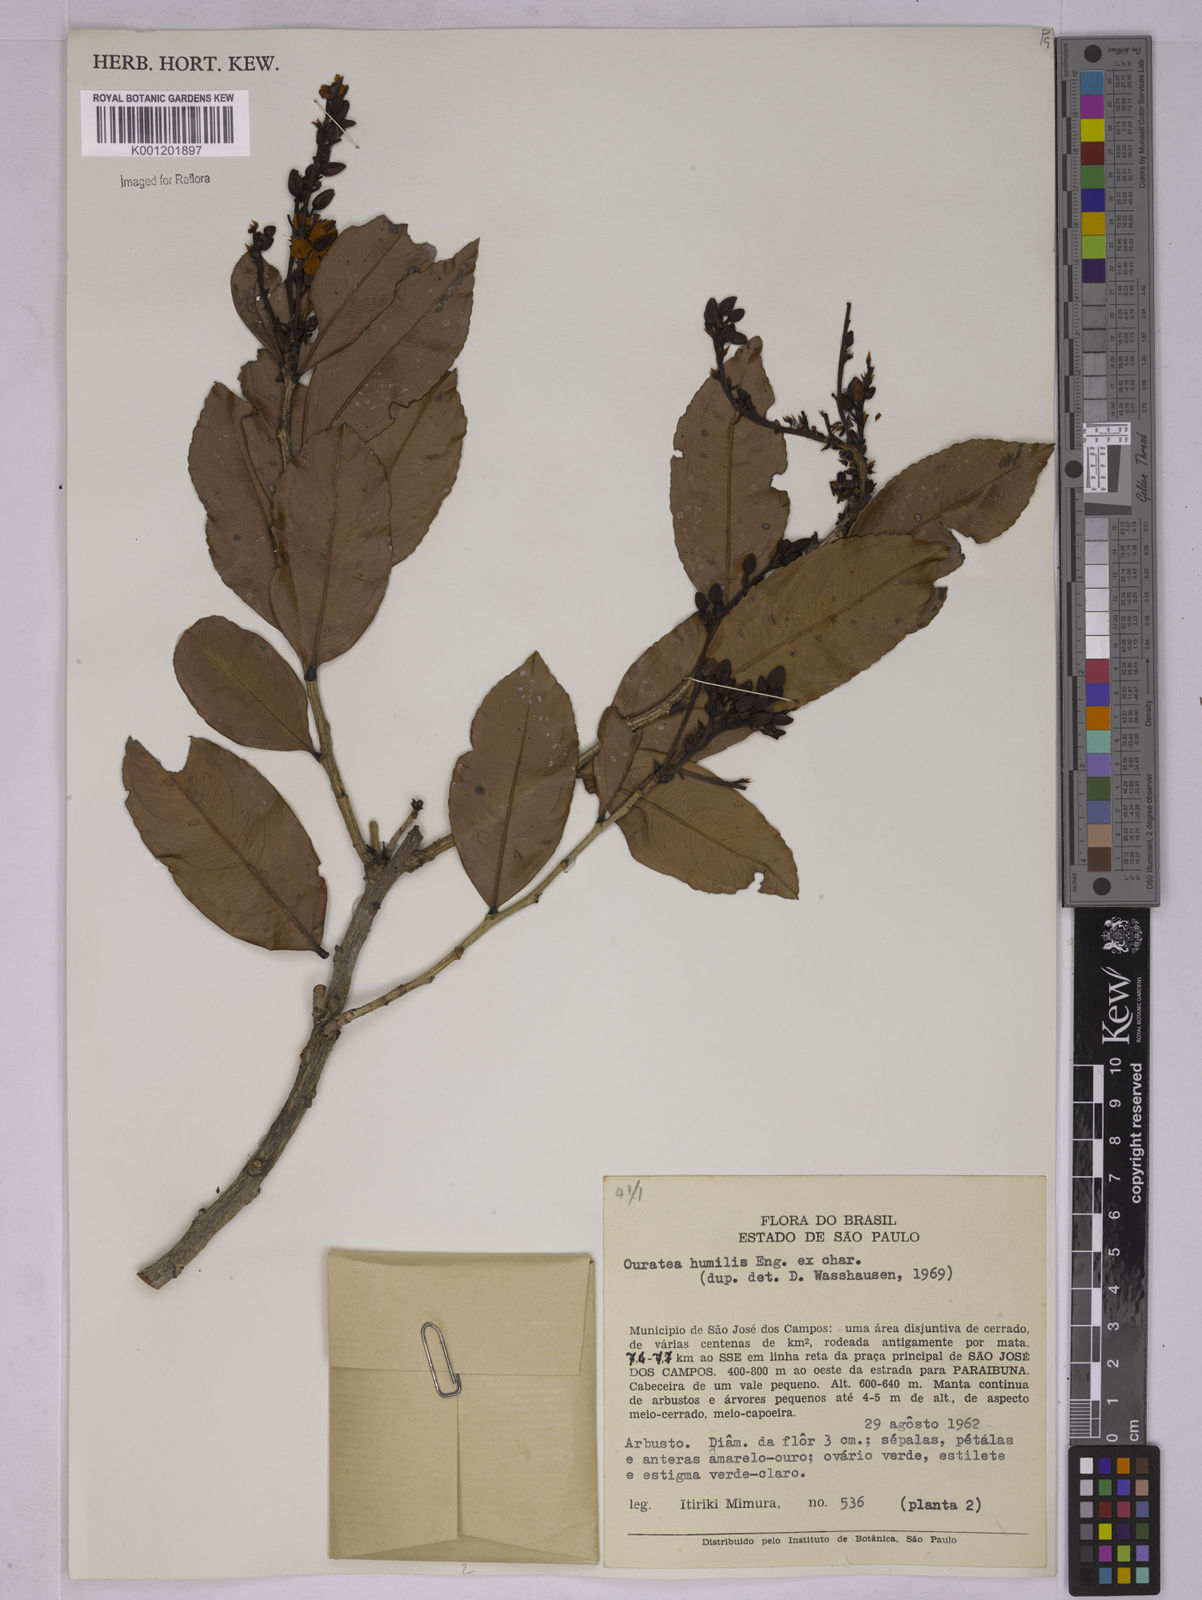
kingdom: Plantae
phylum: Tracheophyta
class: Magnoliopsida
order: Malpighiales
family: Ochnaceae
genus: Ouratea
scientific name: Ouratea humilis
